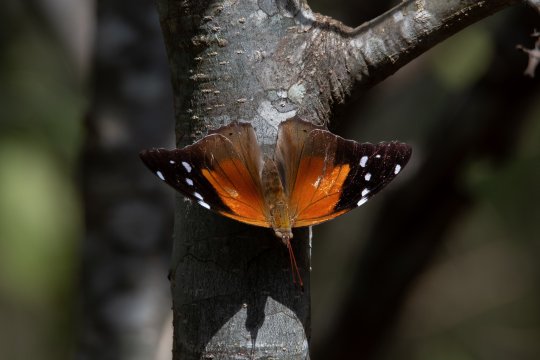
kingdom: Animalia
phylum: Arthropoda
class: Insecta
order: Lepidoptera
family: Nymphalidae
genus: Coea
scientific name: Coea acheronta
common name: Tailed Cecropian
